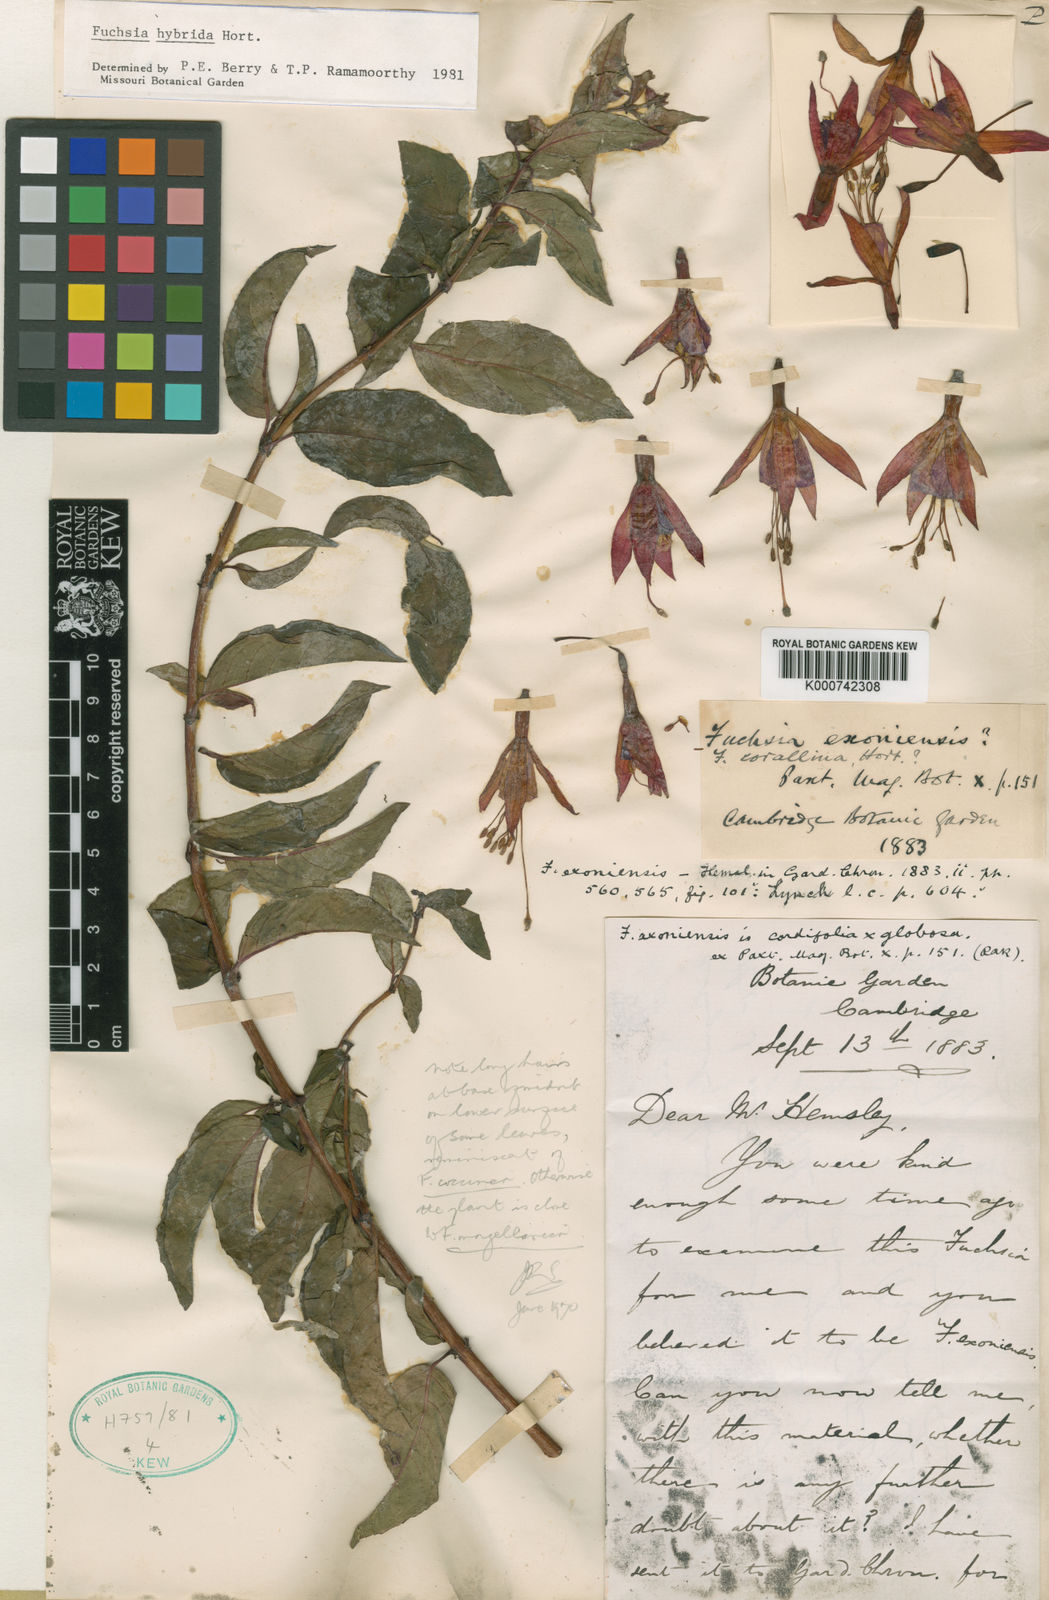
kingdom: Plantae
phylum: Tracheophyta
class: Magnoliopsida
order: Myrtales
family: Onagraceae
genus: Fuchsia
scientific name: Fuchsia
